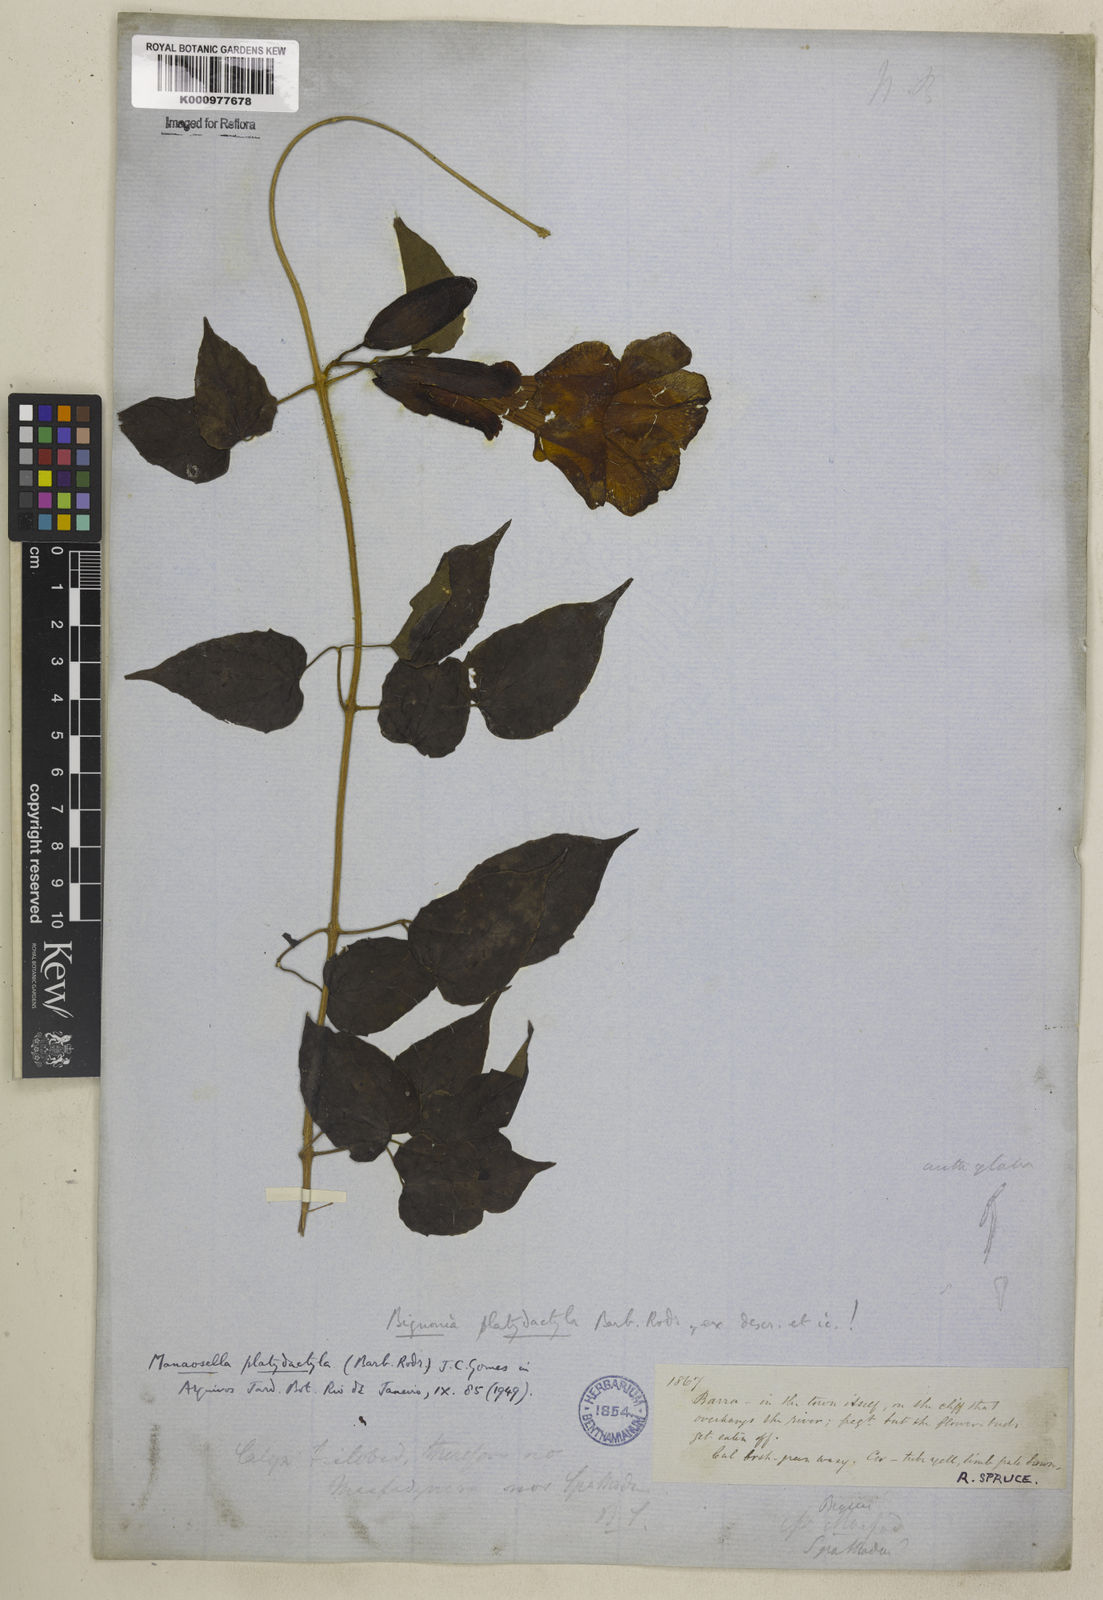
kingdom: Plantae
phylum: Tracheophyta
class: Magnoliopsida
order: Lamiales
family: Bignoniaceae
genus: Manaosella
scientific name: Manaosella cordifolia
